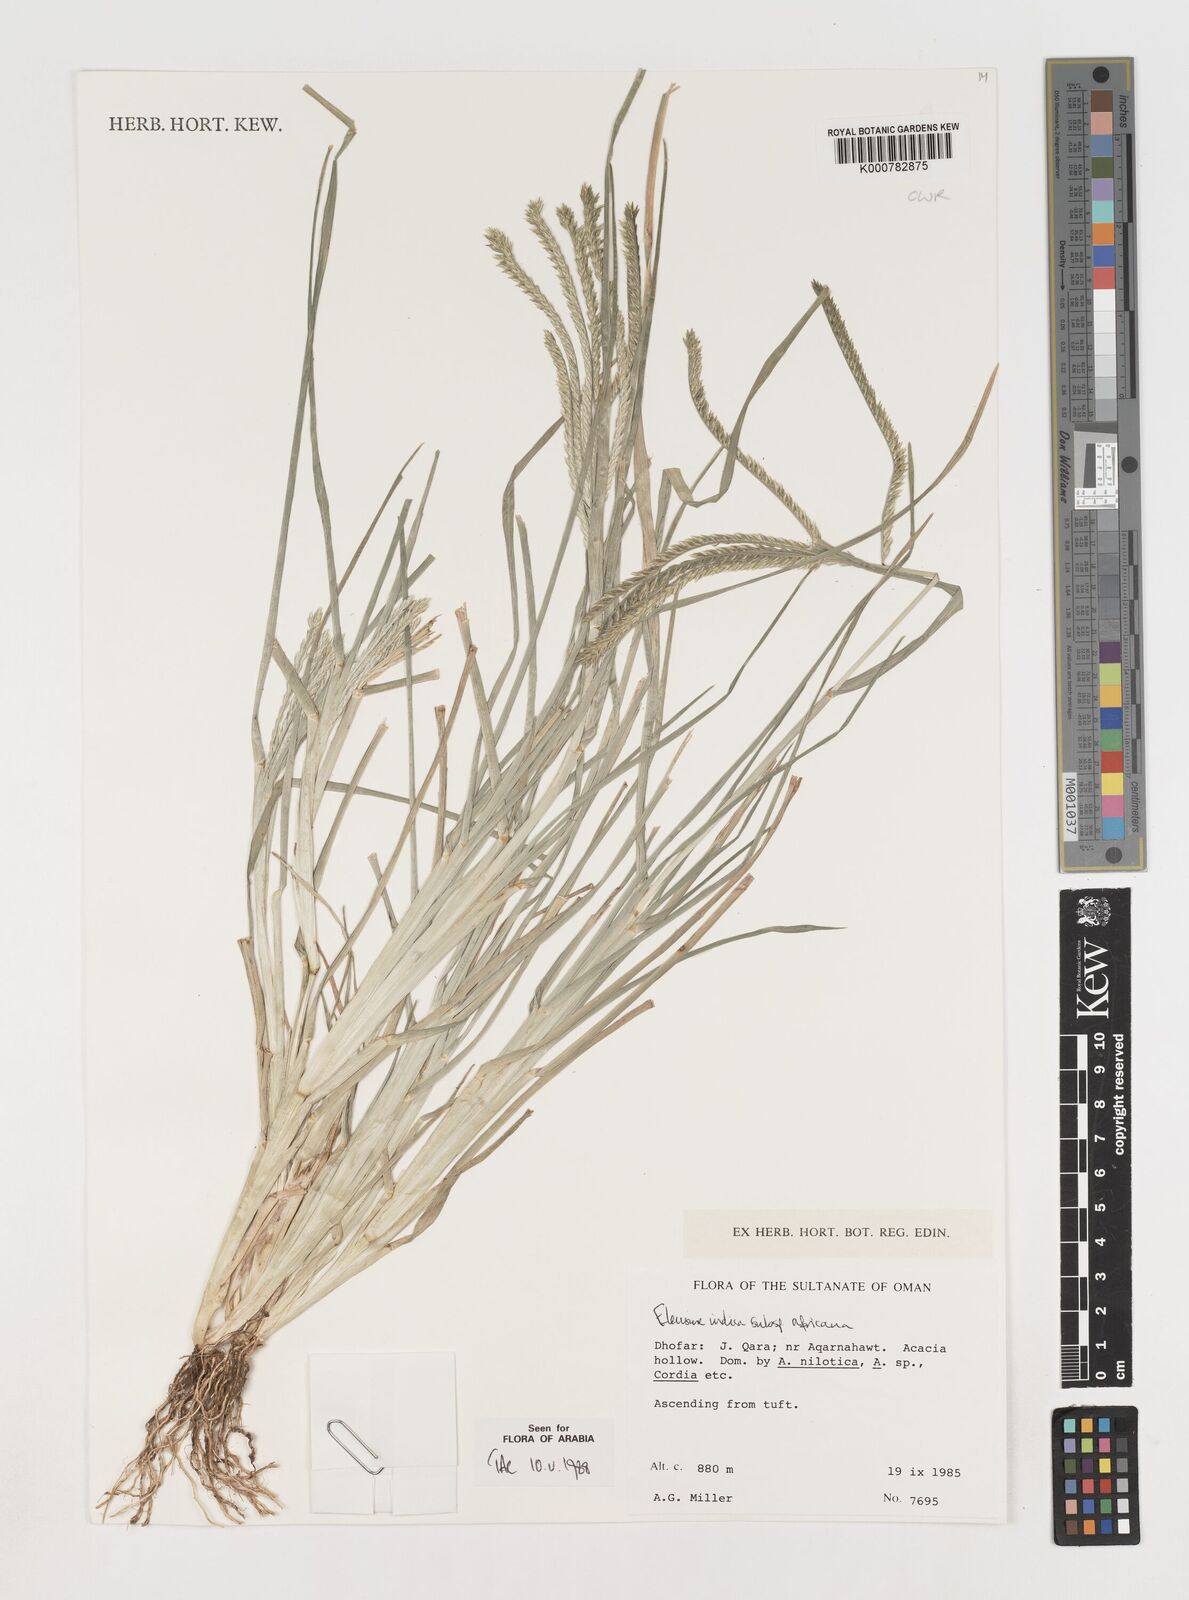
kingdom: Plantae
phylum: Tracheophyta
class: Liliopsida
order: Poales
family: Poaceae
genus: Eleusine
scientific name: Eleusine africana
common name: Wild african finger millet
